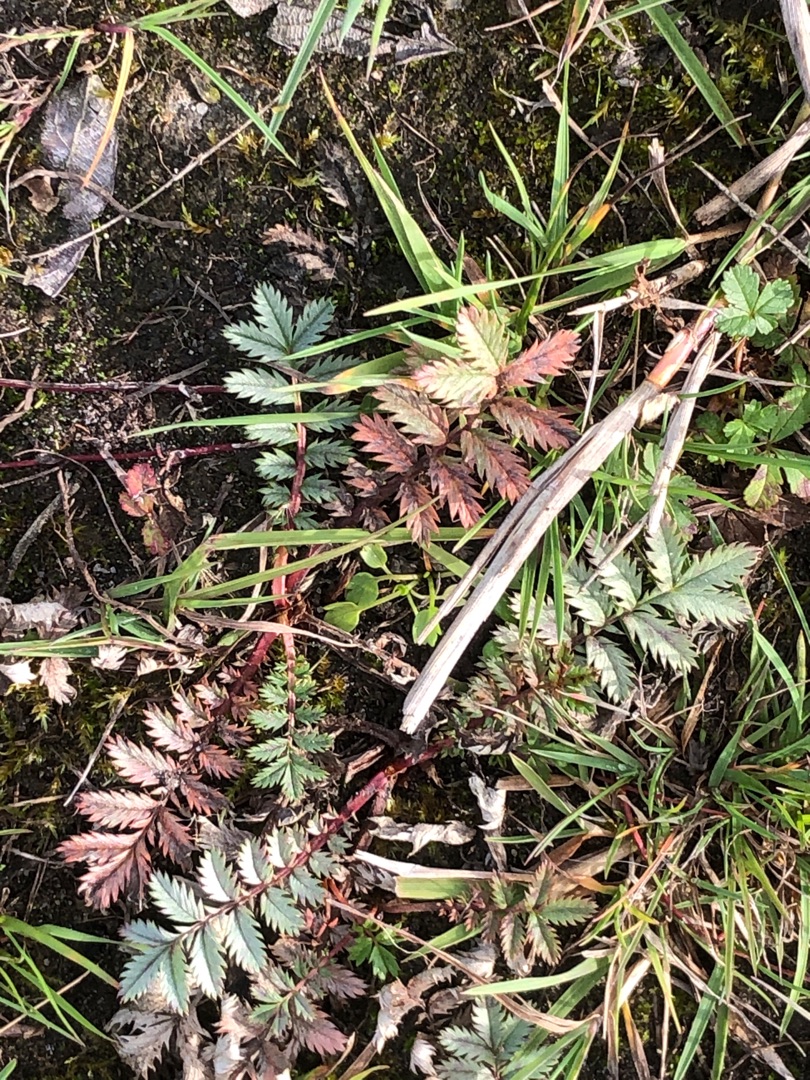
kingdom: Plantae
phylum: Tracheophyta
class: Magnoliopsida
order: Rosales
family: Rosaceae
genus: Argentina
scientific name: Argentina anserina
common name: Gåsepotentil
